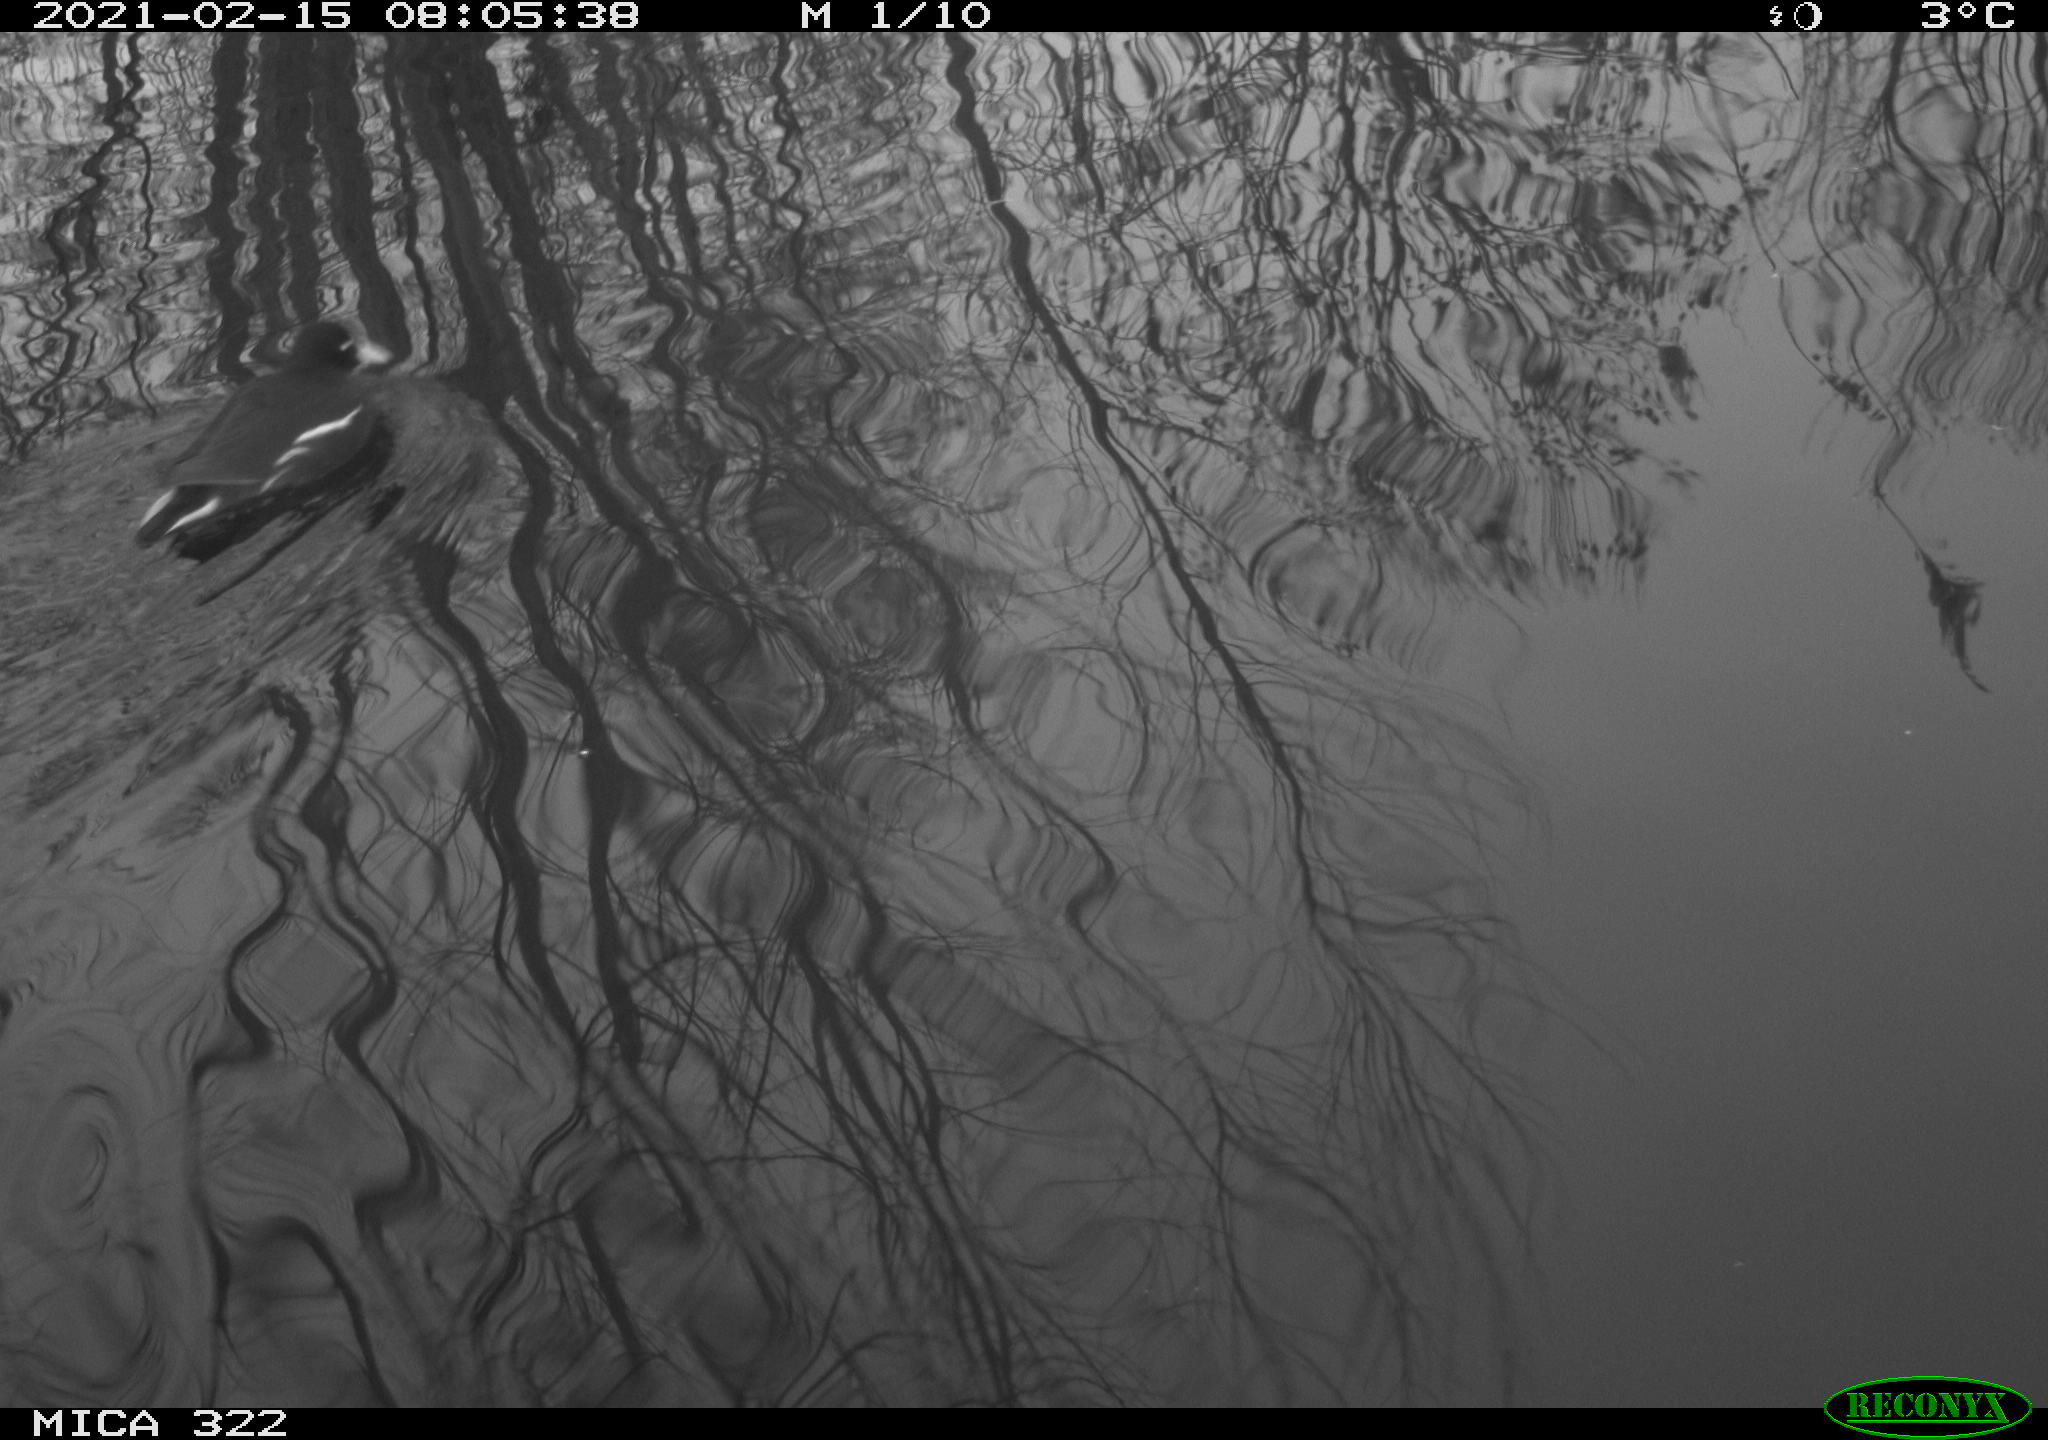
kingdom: Animalia
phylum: Chordata
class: Aves
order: Gruiformes
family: Rallidae
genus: Gallinula
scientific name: Gallinula chloropus
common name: Common moorhen
